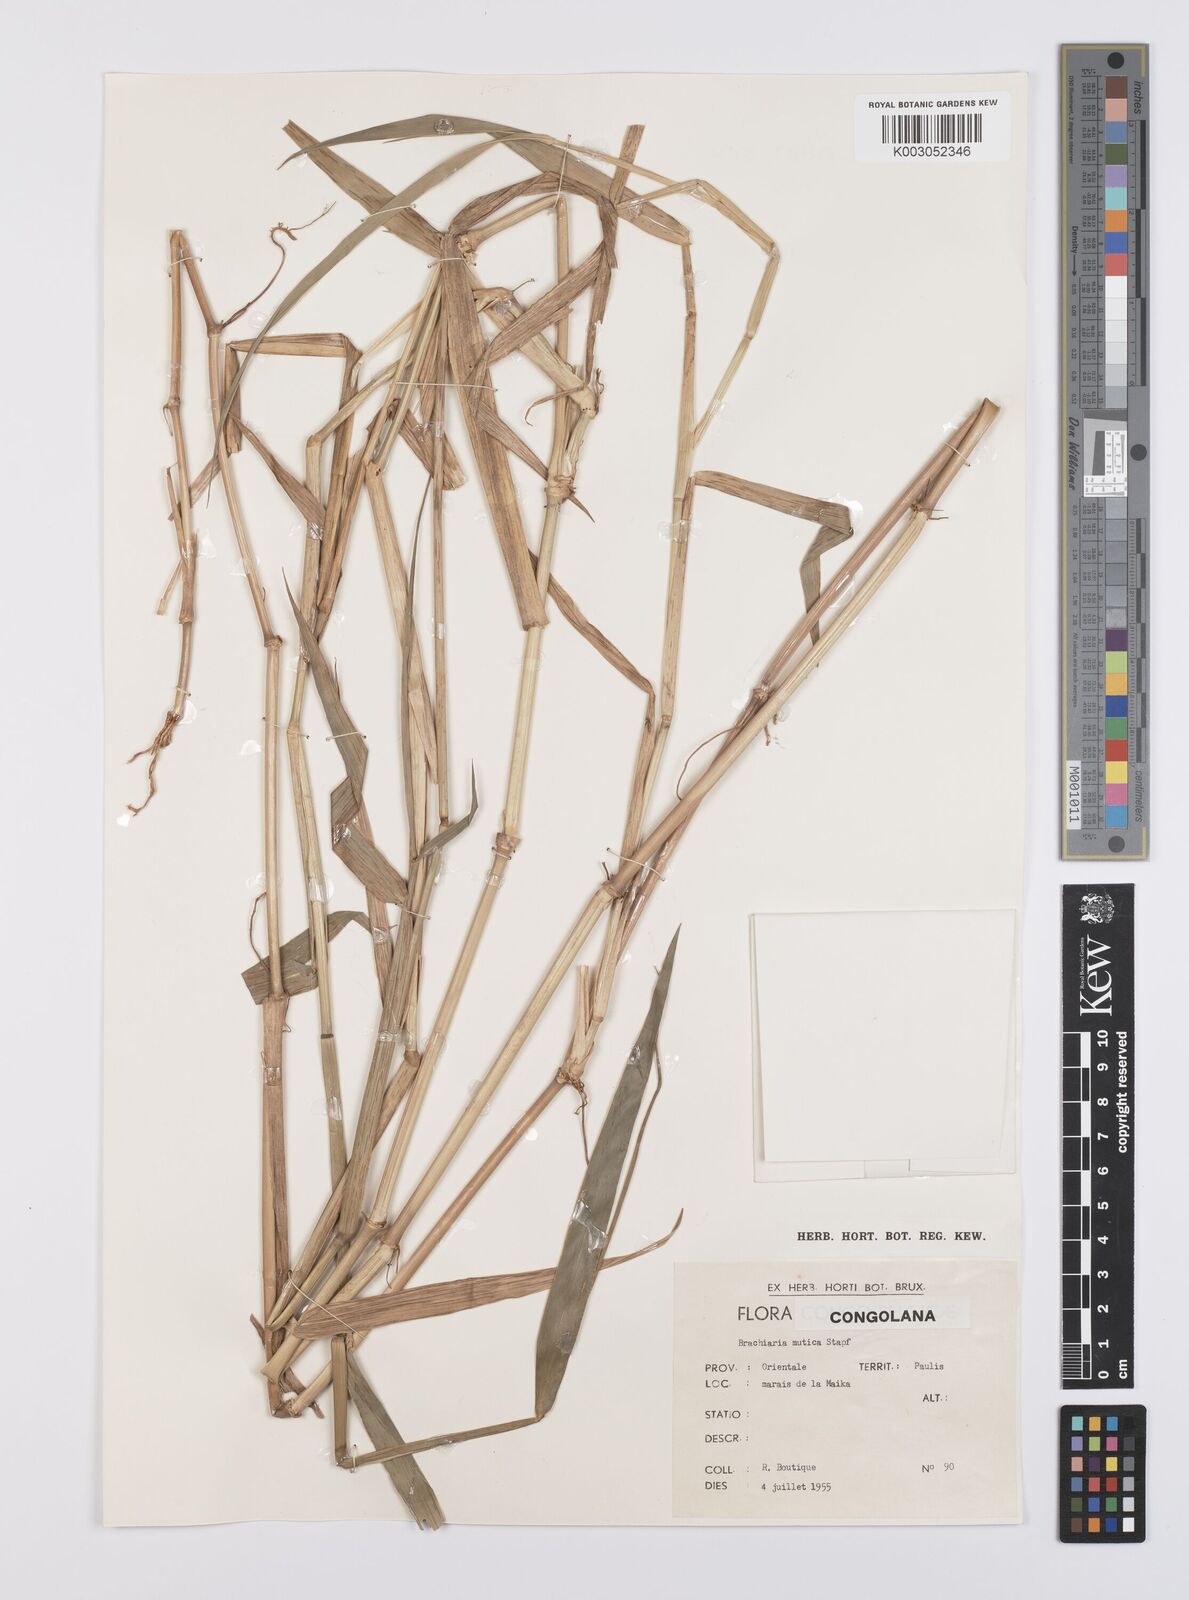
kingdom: Plantae
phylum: Tracheophyta
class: Liliopsida
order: Poales
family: Poaceae
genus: Urochloa
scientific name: Urochloa arrecta
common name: African signalgrass
